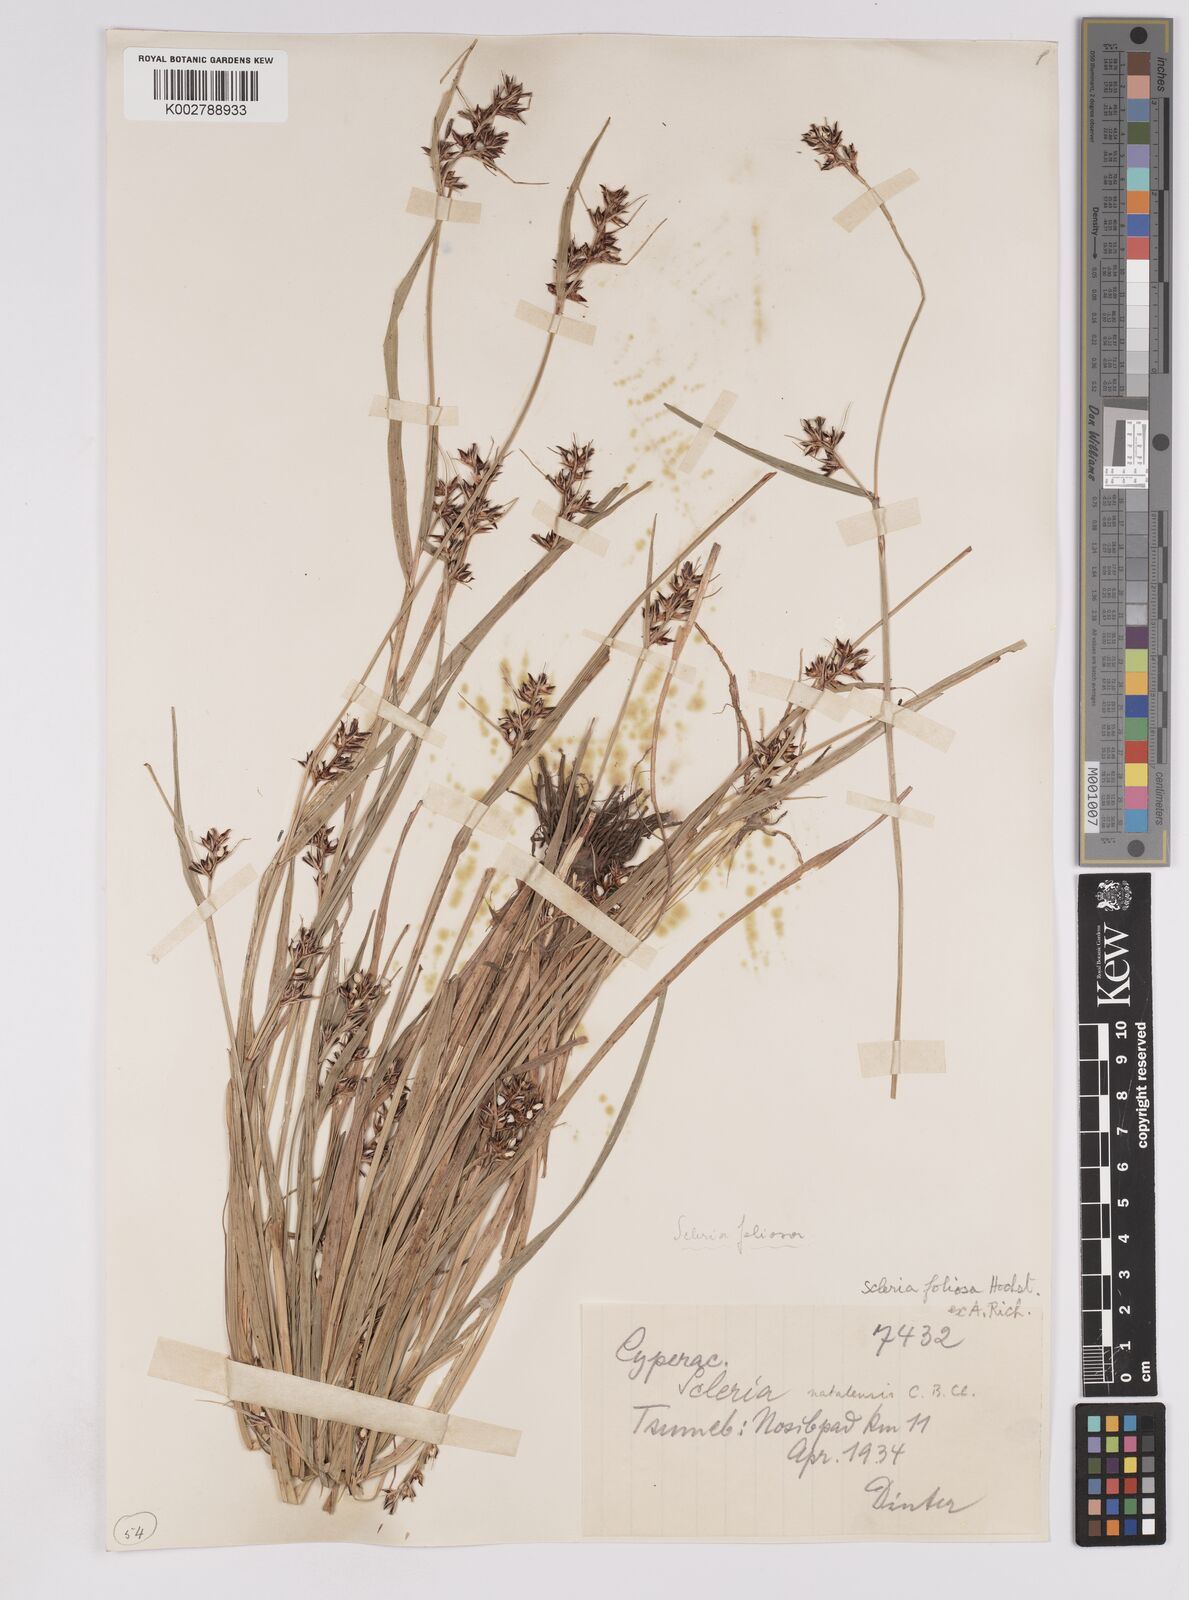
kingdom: Plantae
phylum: Tracheophyta
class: Liliopsida
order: Poales
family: Cyperaceae
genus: Scleria
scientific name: Scleria foliosa
